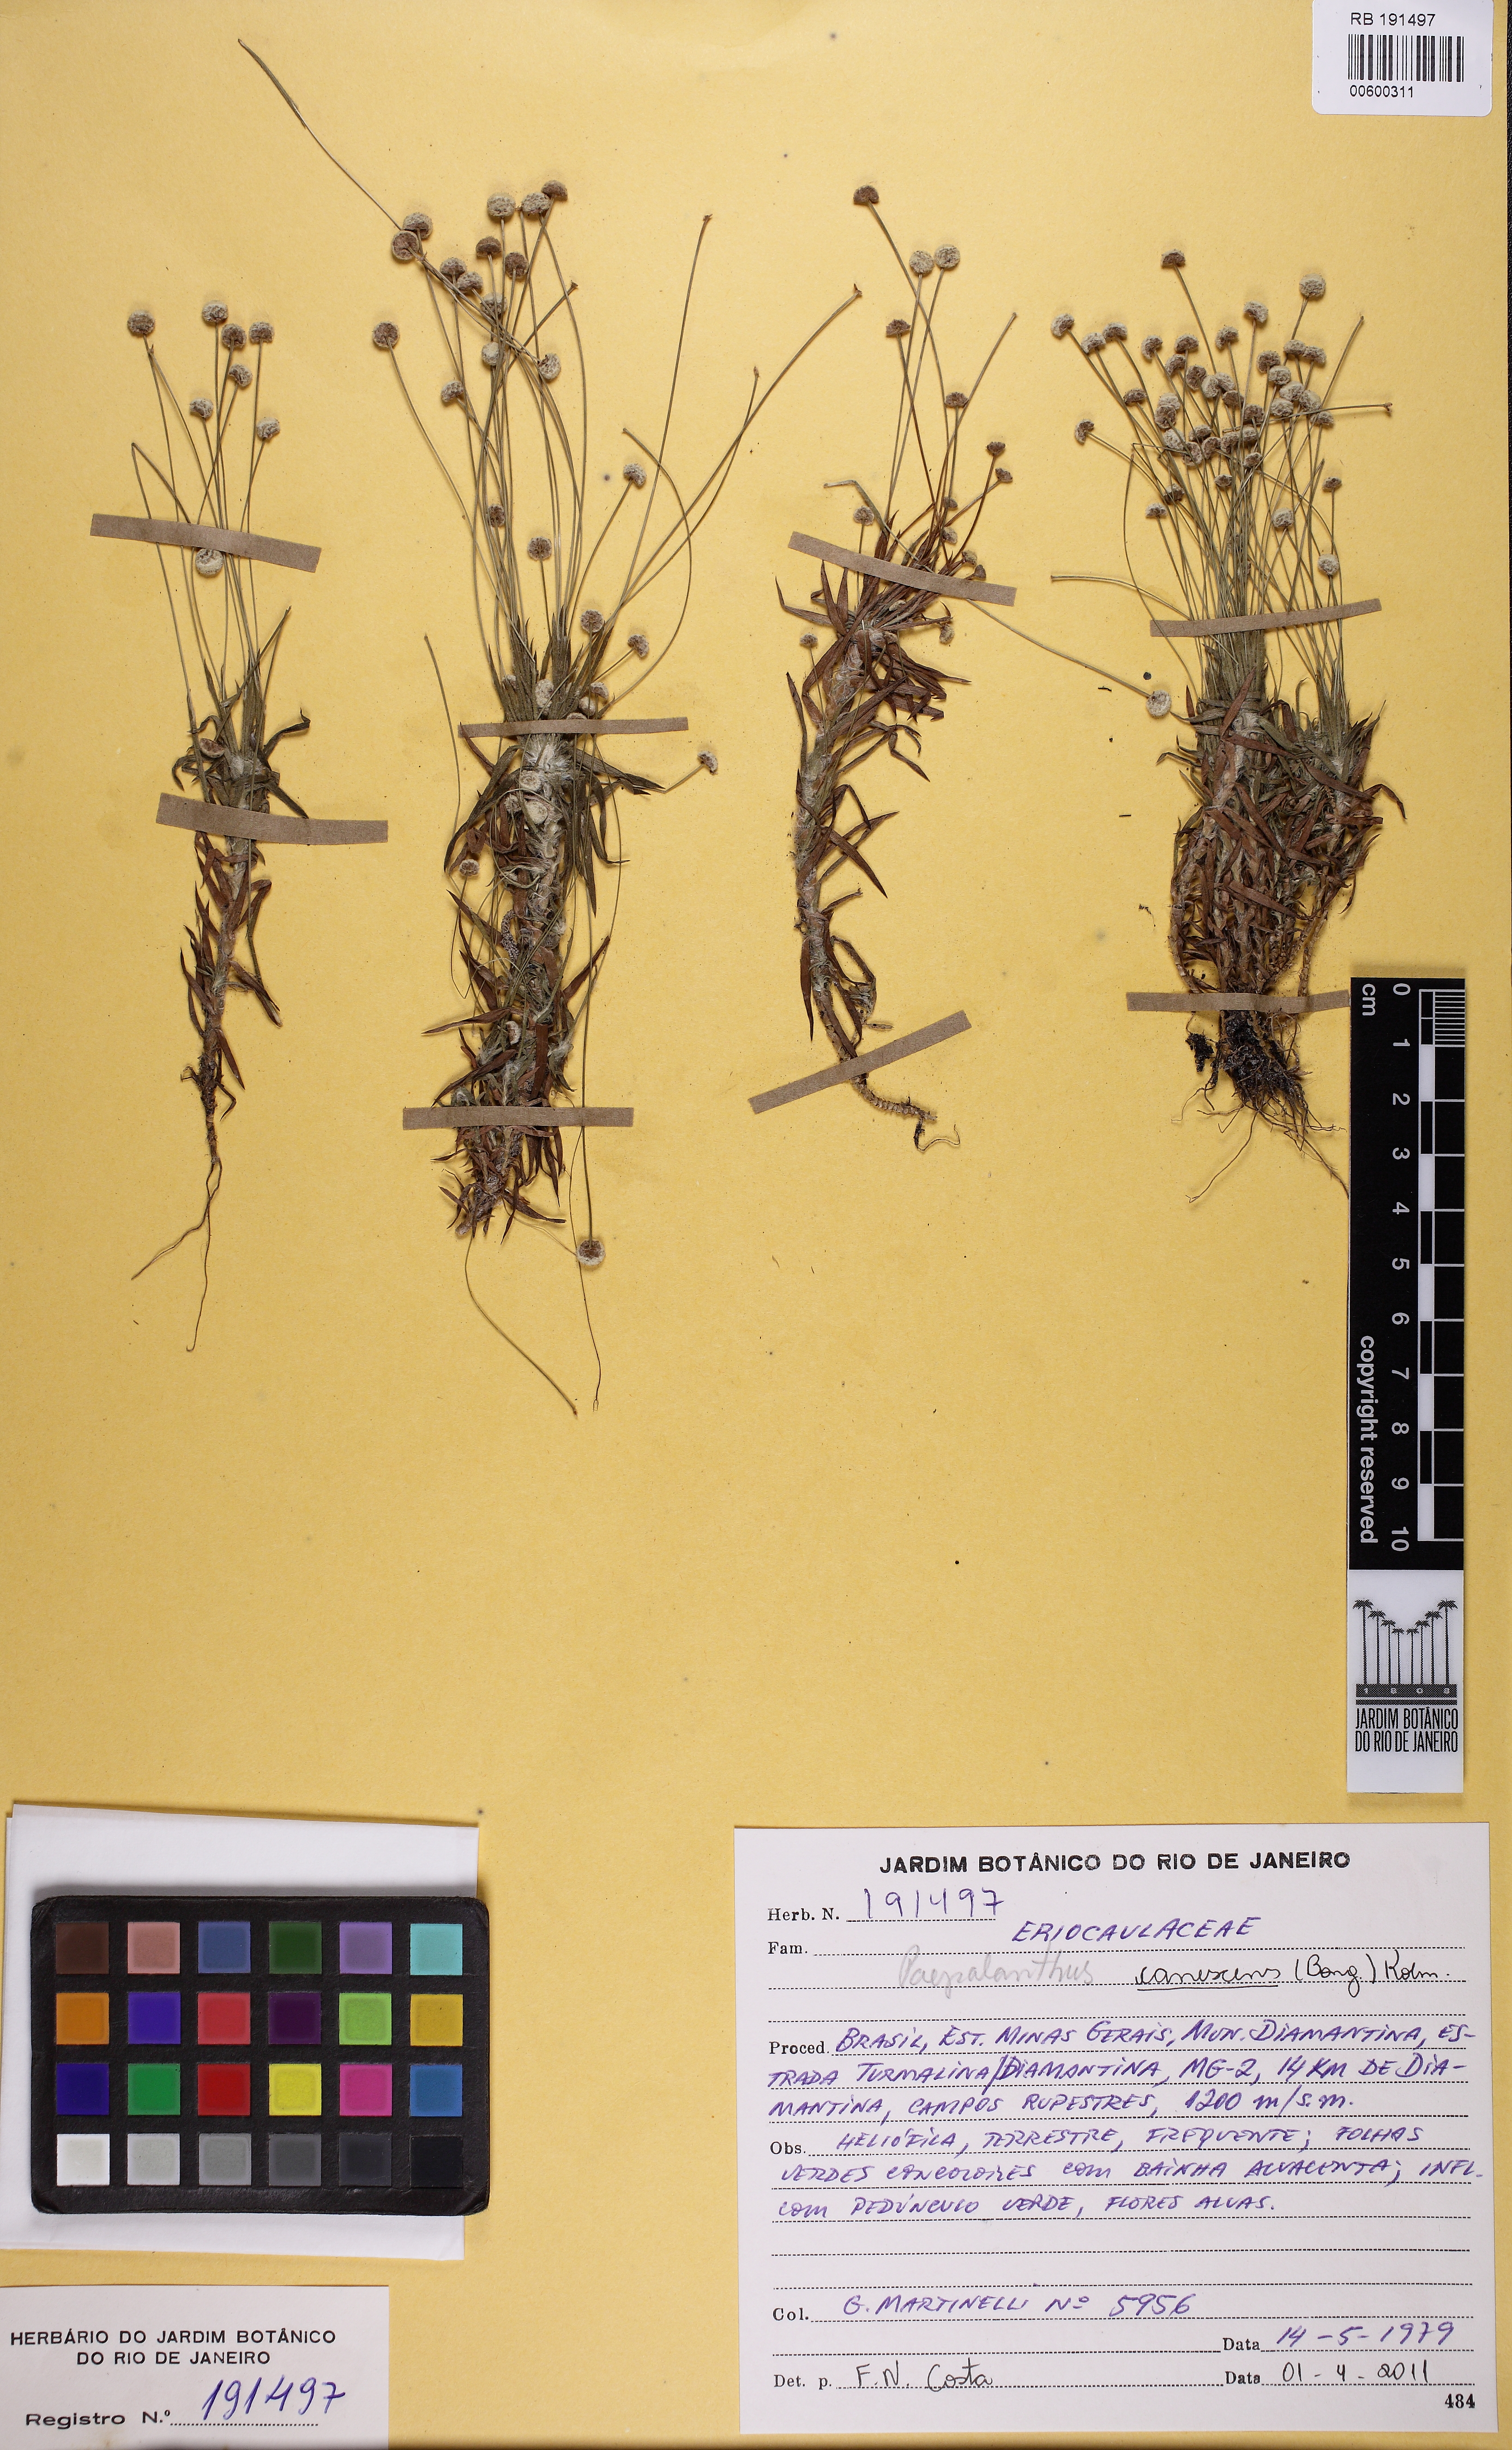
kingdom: Plantae
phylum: Tracheophyta
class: Liliopsida
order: Poales
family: Eriocaulaceae
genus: Paepalanthus
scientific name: Paepalanthus canescens
